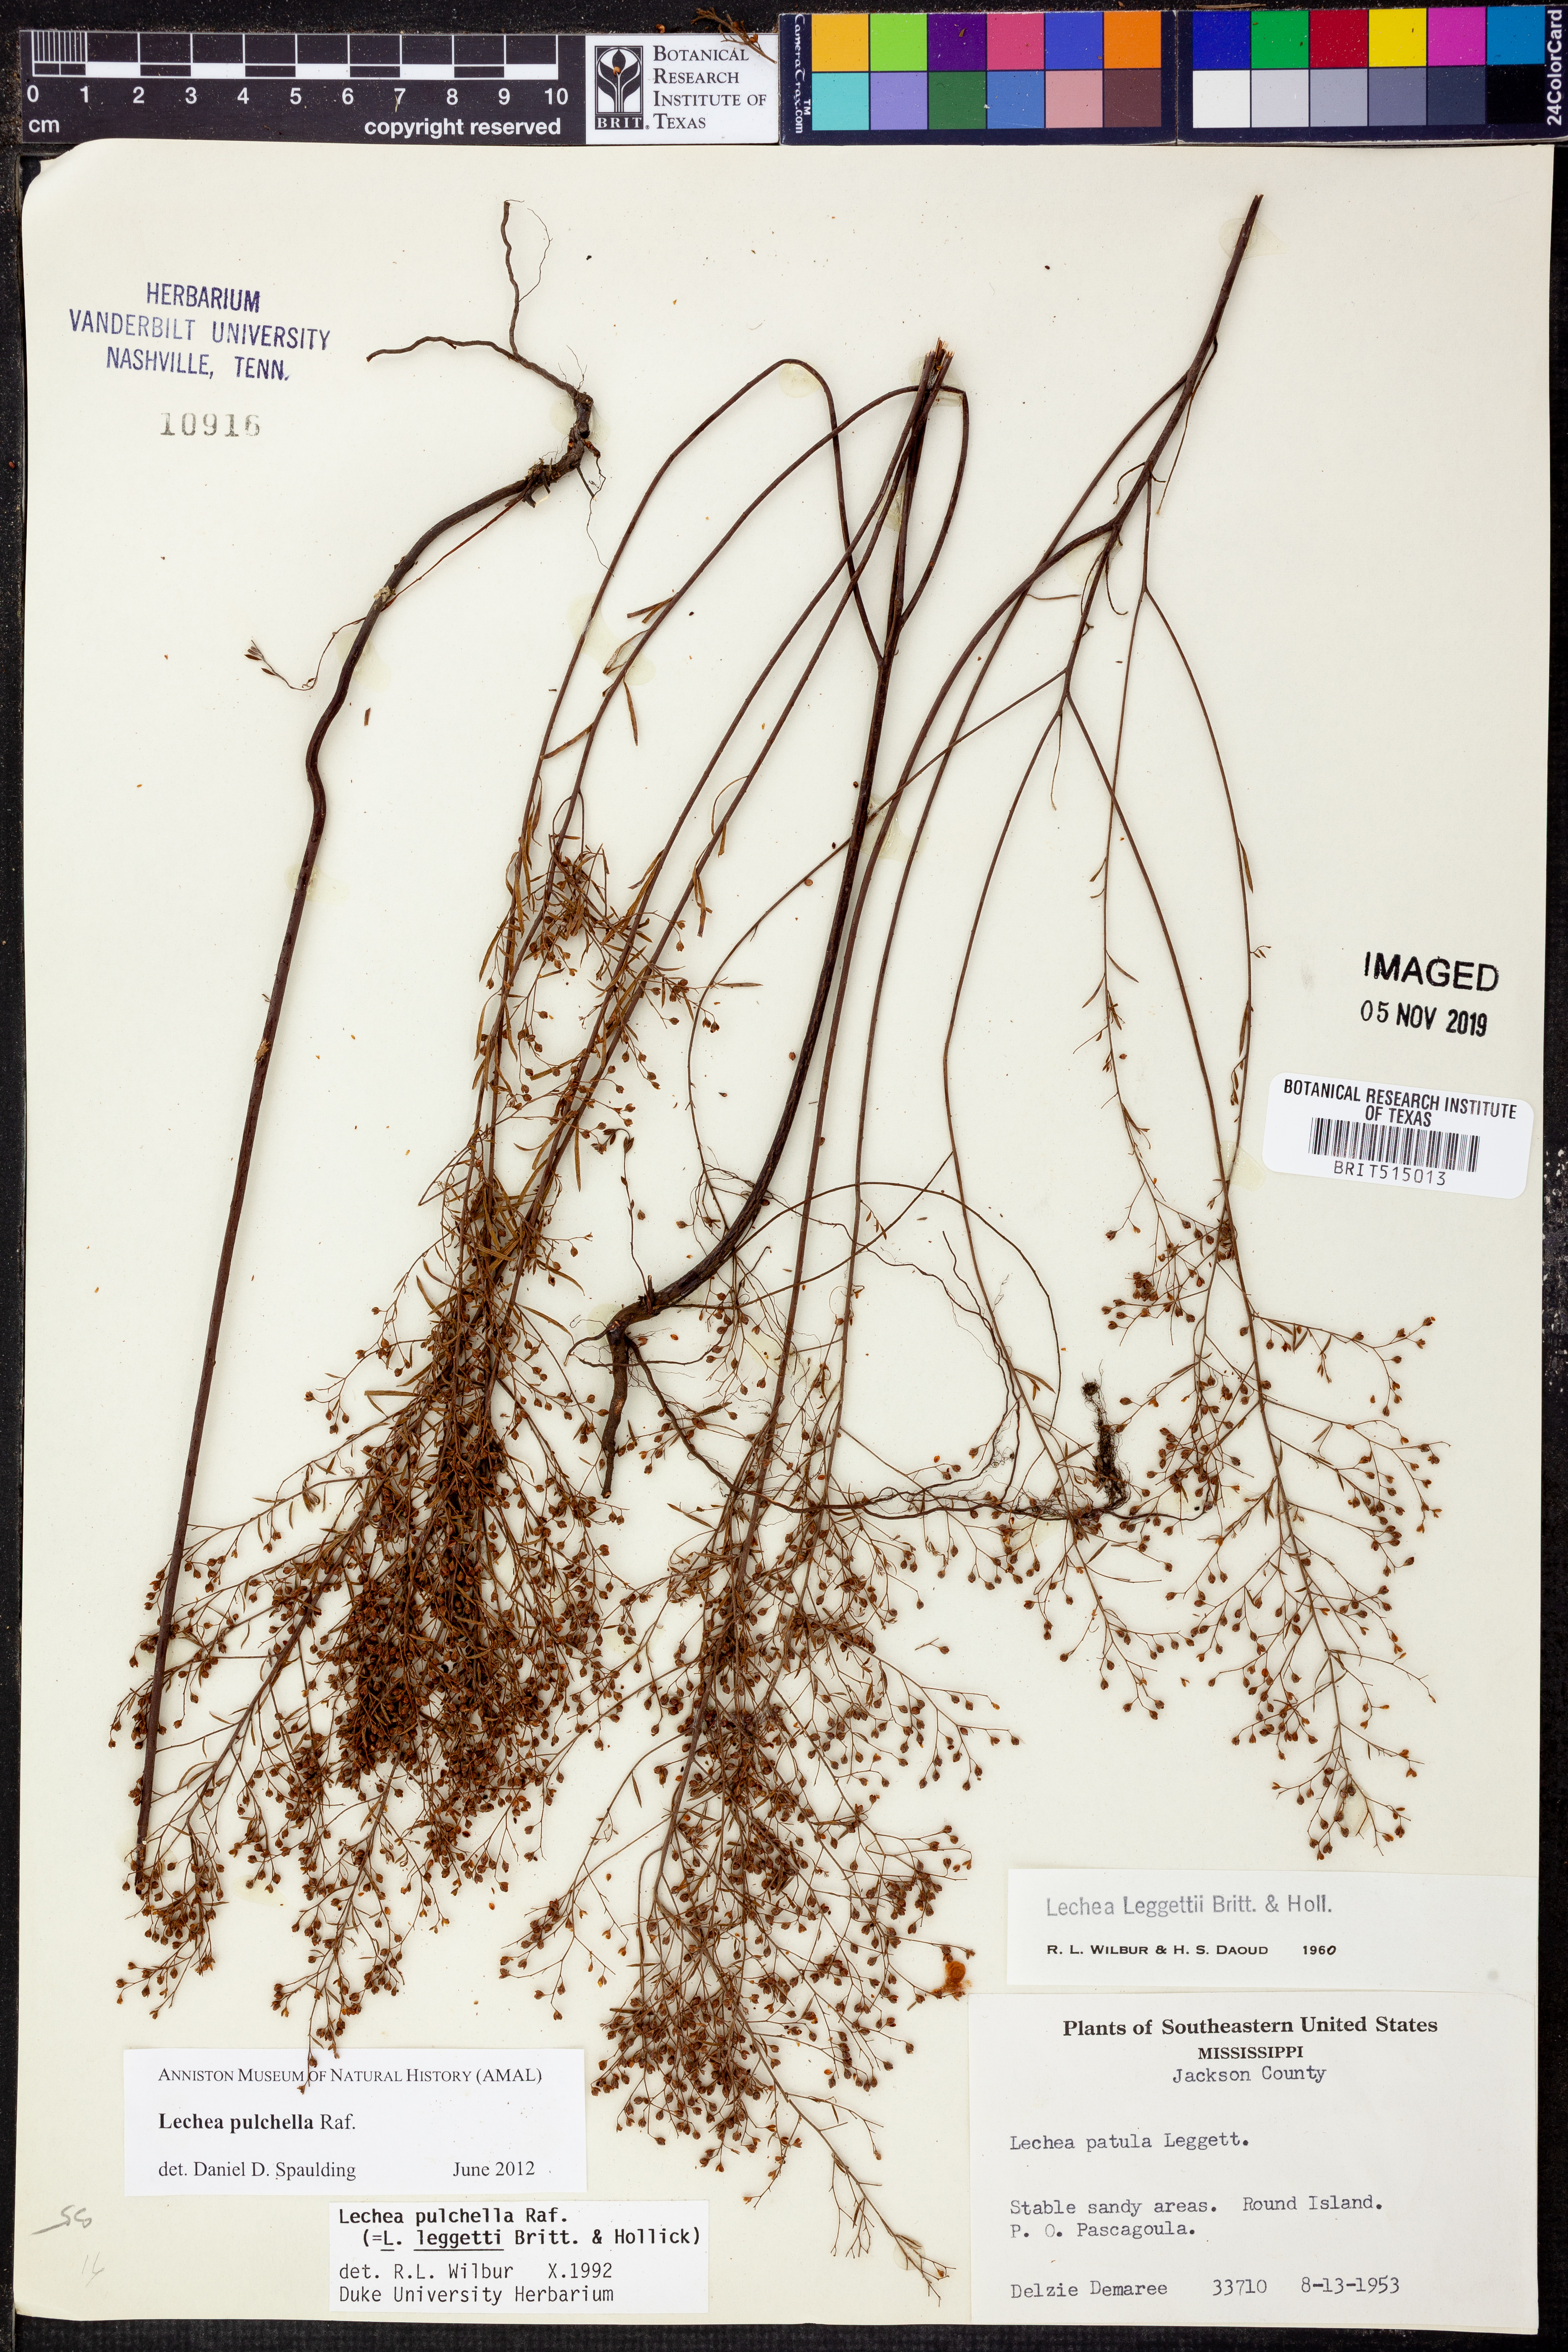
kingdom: Plantae
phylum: Tracheophyta
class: Magnoliopsida
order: Malvales
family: Cistaceae
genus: Lechea
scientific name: Lechea pulchella
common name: Leggett's pinweed
